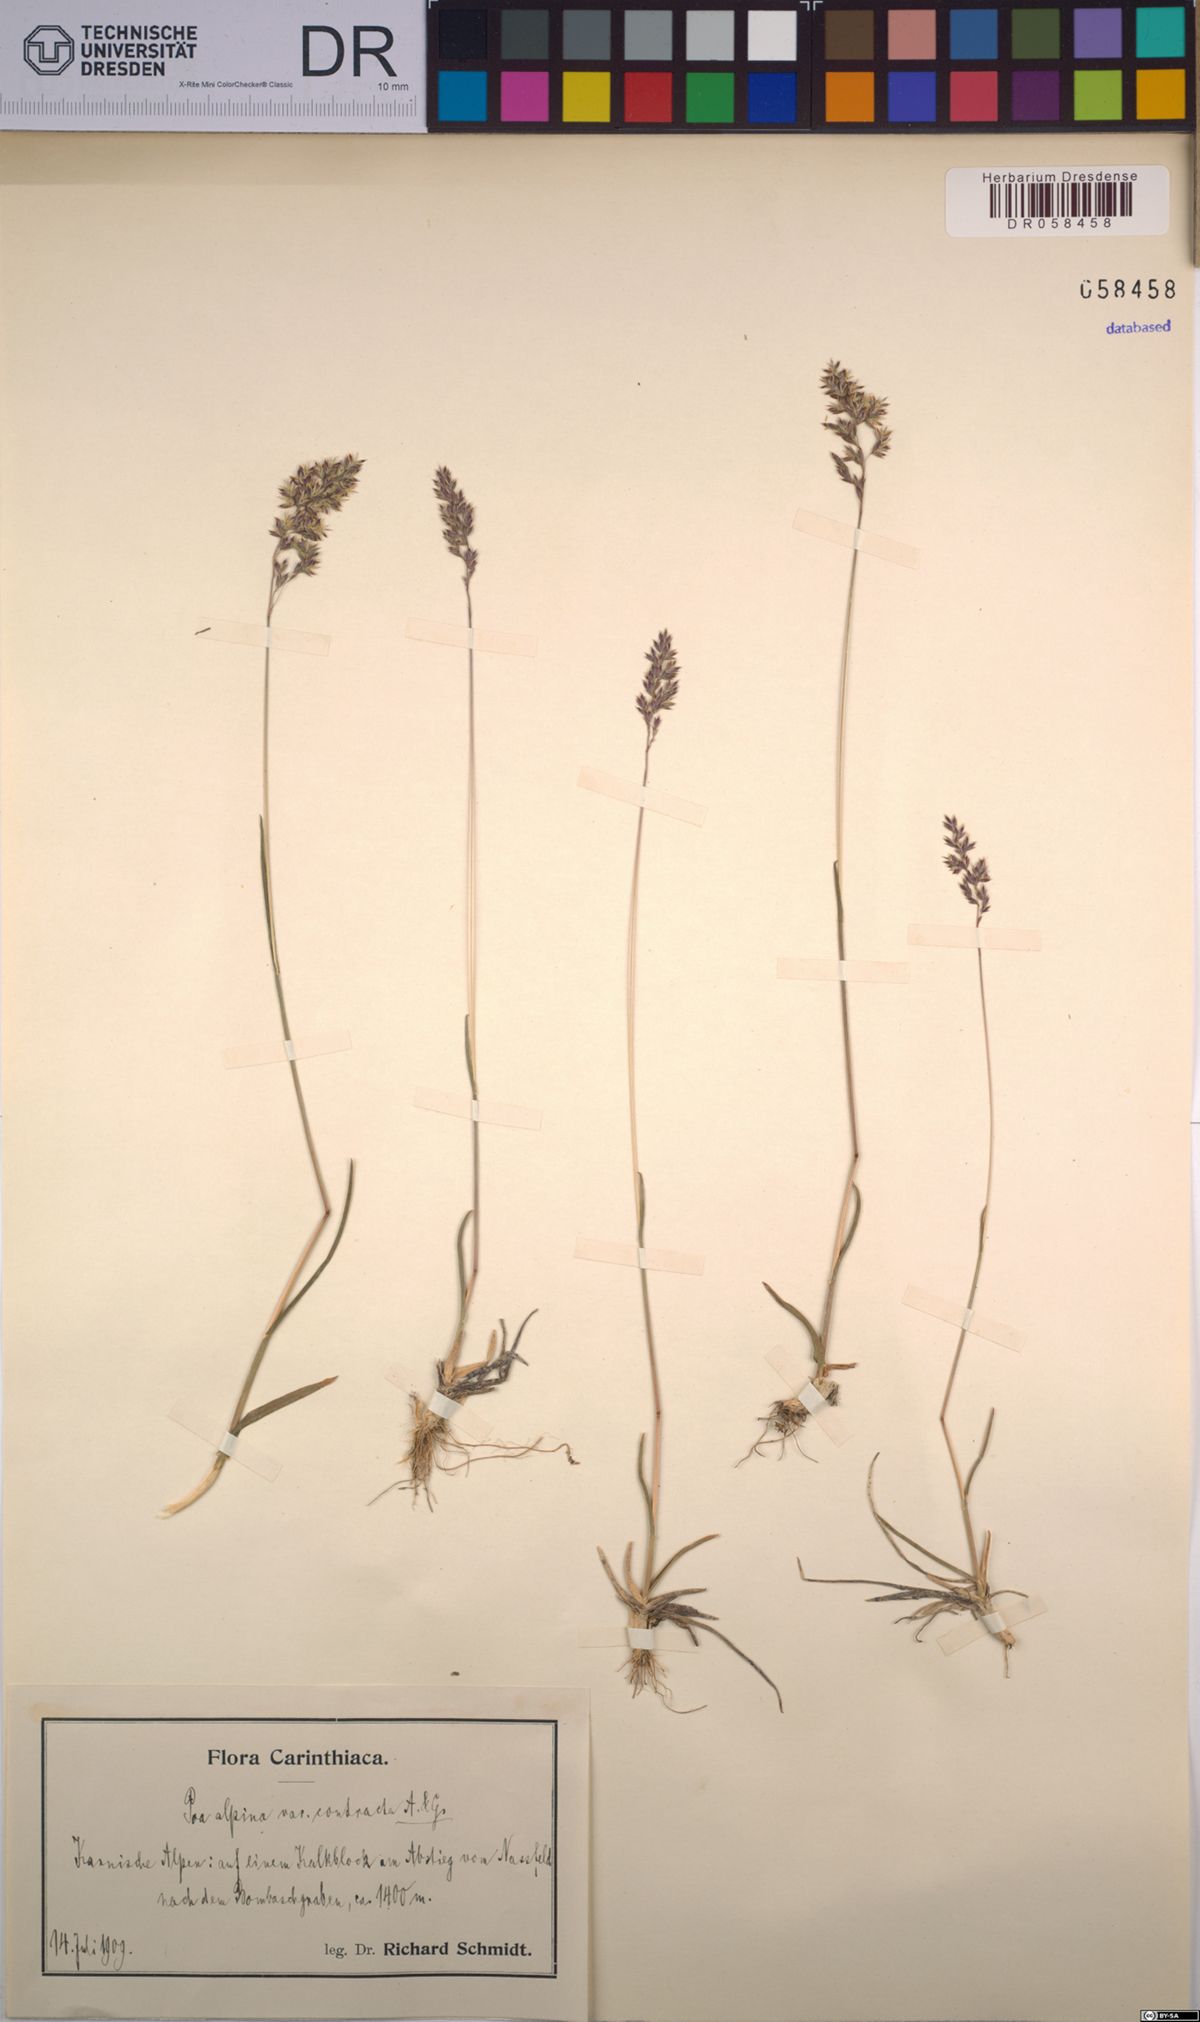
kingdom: Plantae
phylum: Tracheophyta
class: Liliopsida
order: Poales
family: Poaceae
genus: Poa
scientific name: Poa alpina
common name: Alpine bluegrass
